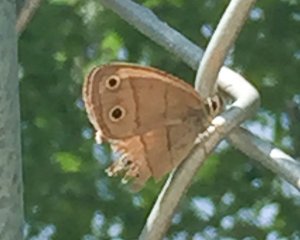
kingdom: Animalia
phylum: Arthropoda
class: Insecta
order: Lepidoptera
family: Nymphalidae
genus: Euptychia
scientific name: Euptychia cymela
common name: Little Wood Satyr
